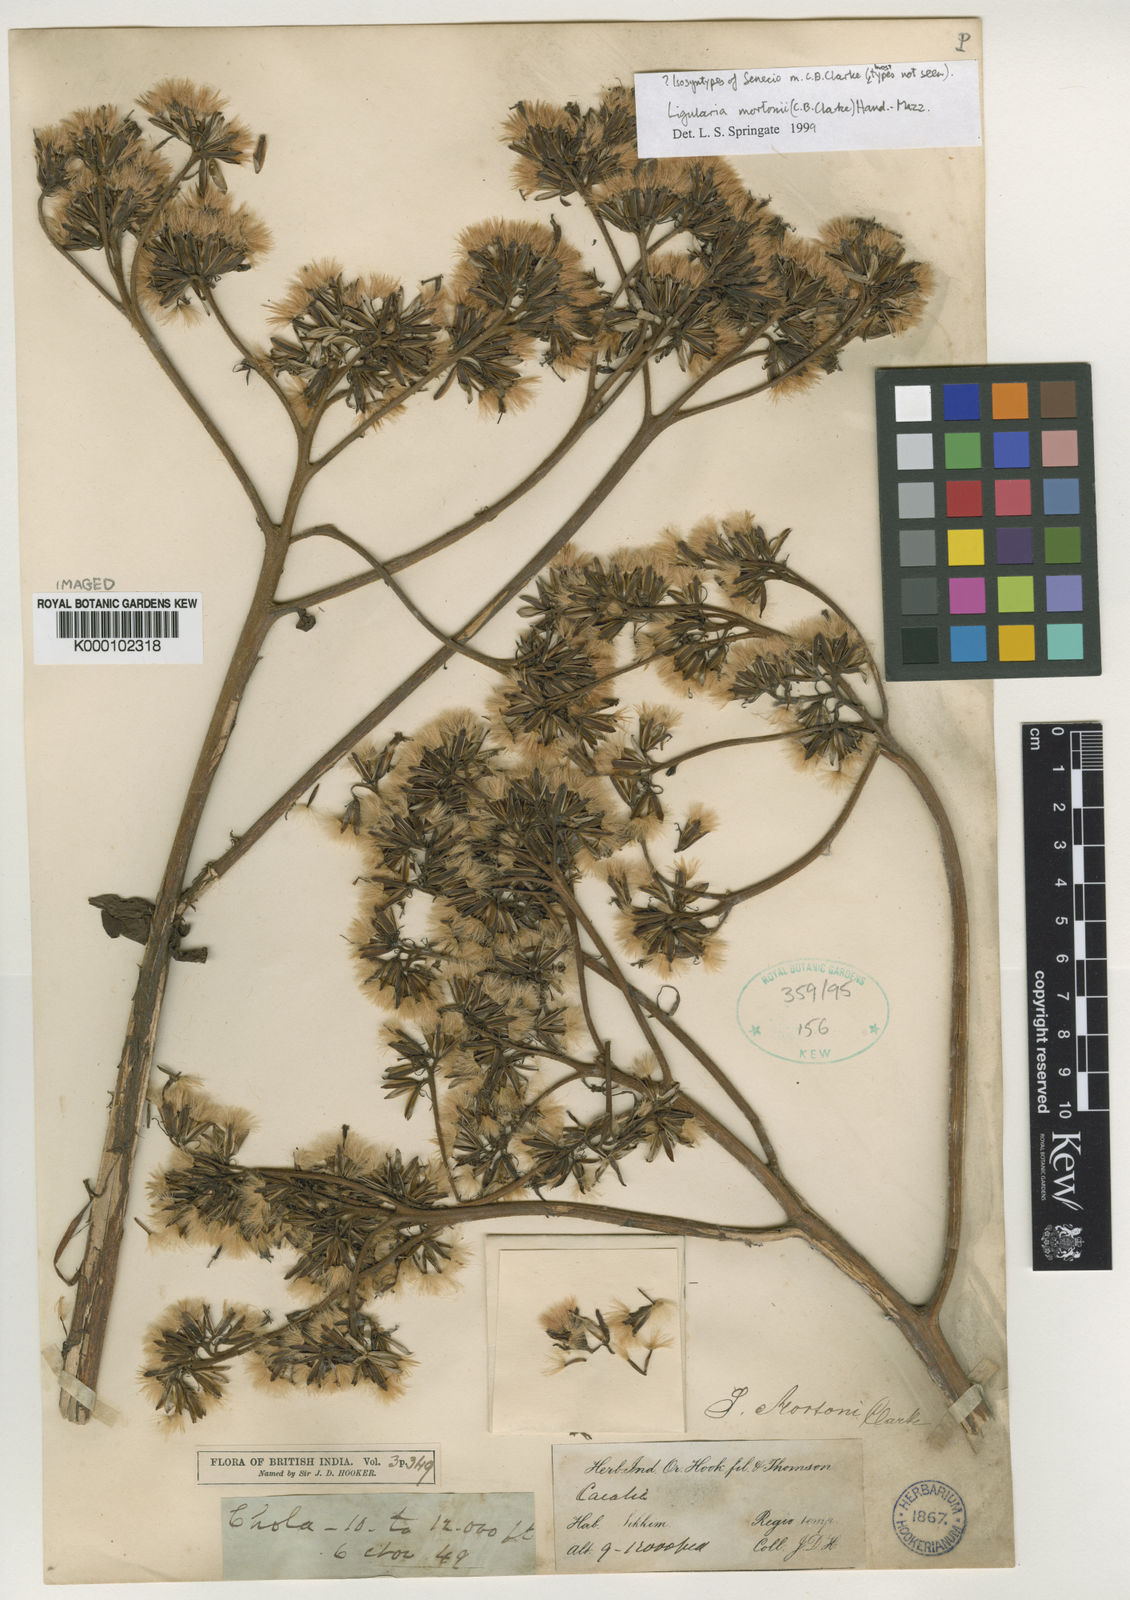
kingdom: Plantae
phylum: Tracheophyta
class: Magnoliopsida
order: Asterales
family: Asteraceae
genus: Ligularia
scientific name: Ligularia mortonii
